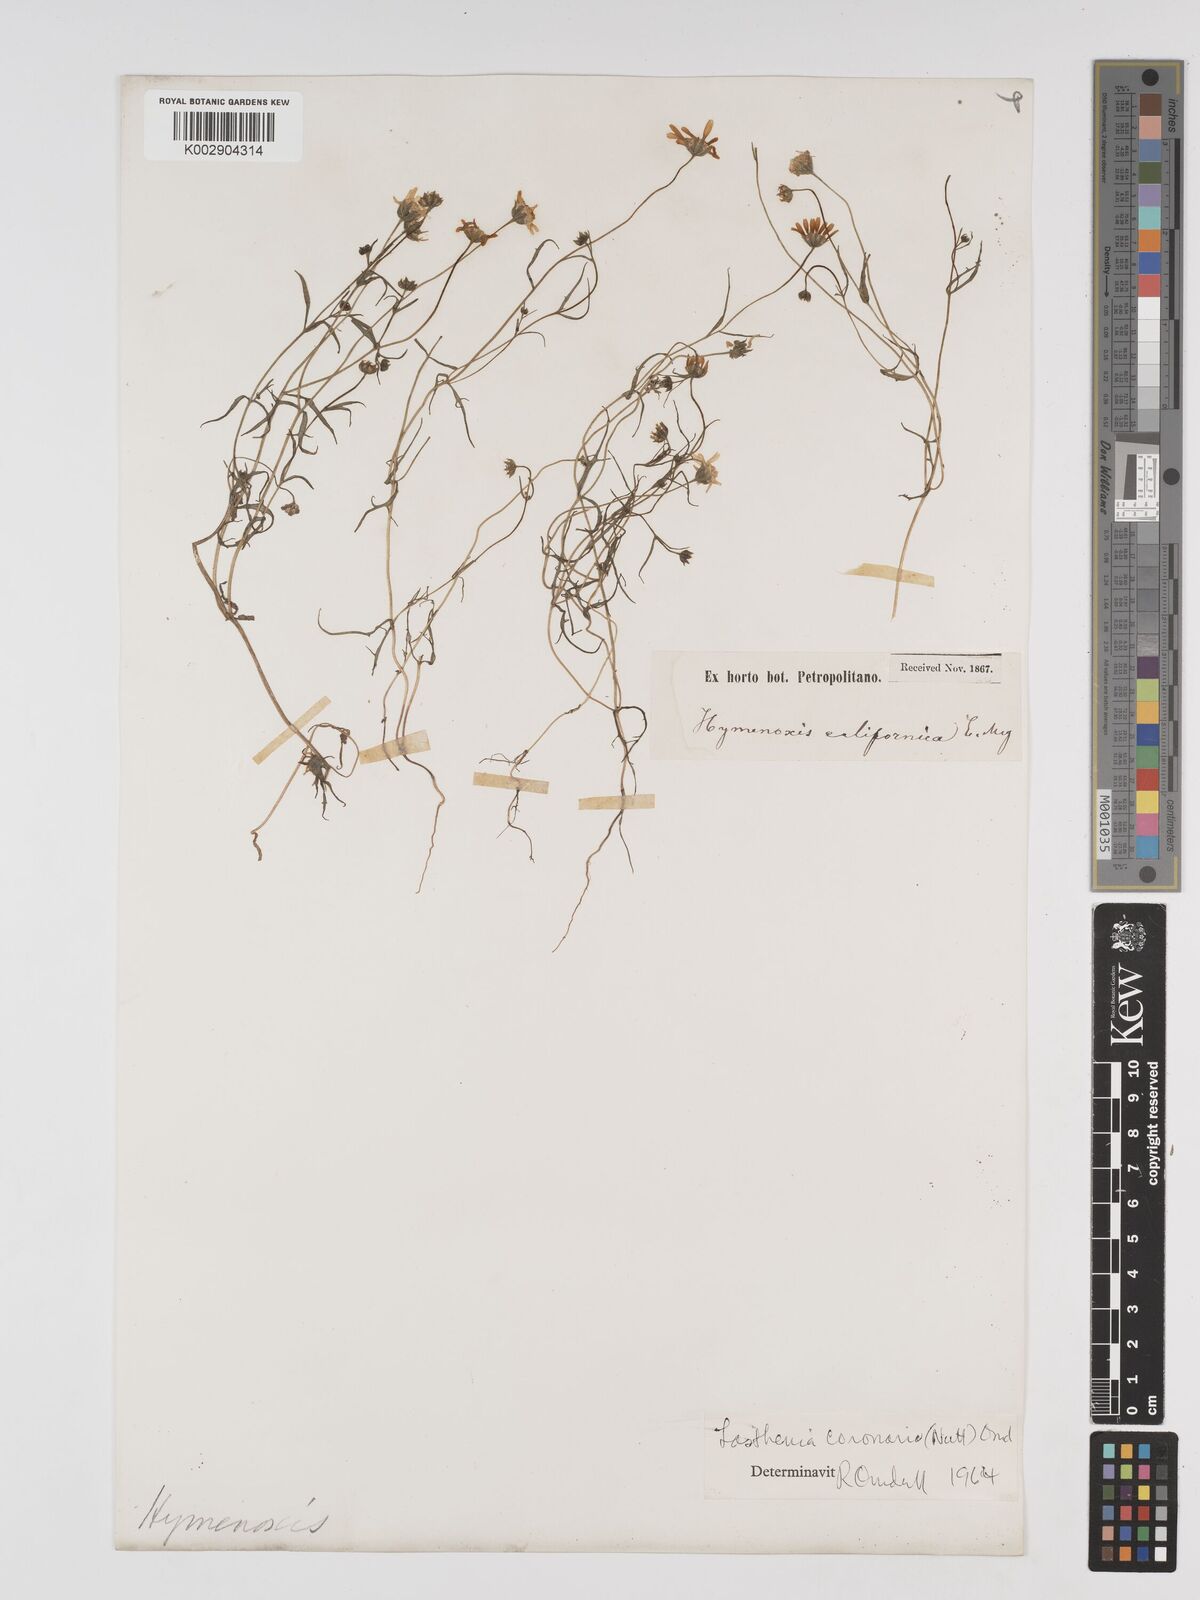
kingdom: Plantae
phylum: Tracheophyta
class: Magnoliopsida
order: Asterales
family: Asteraceae
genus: Lasthenia
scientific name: Lasthenia coronaria
